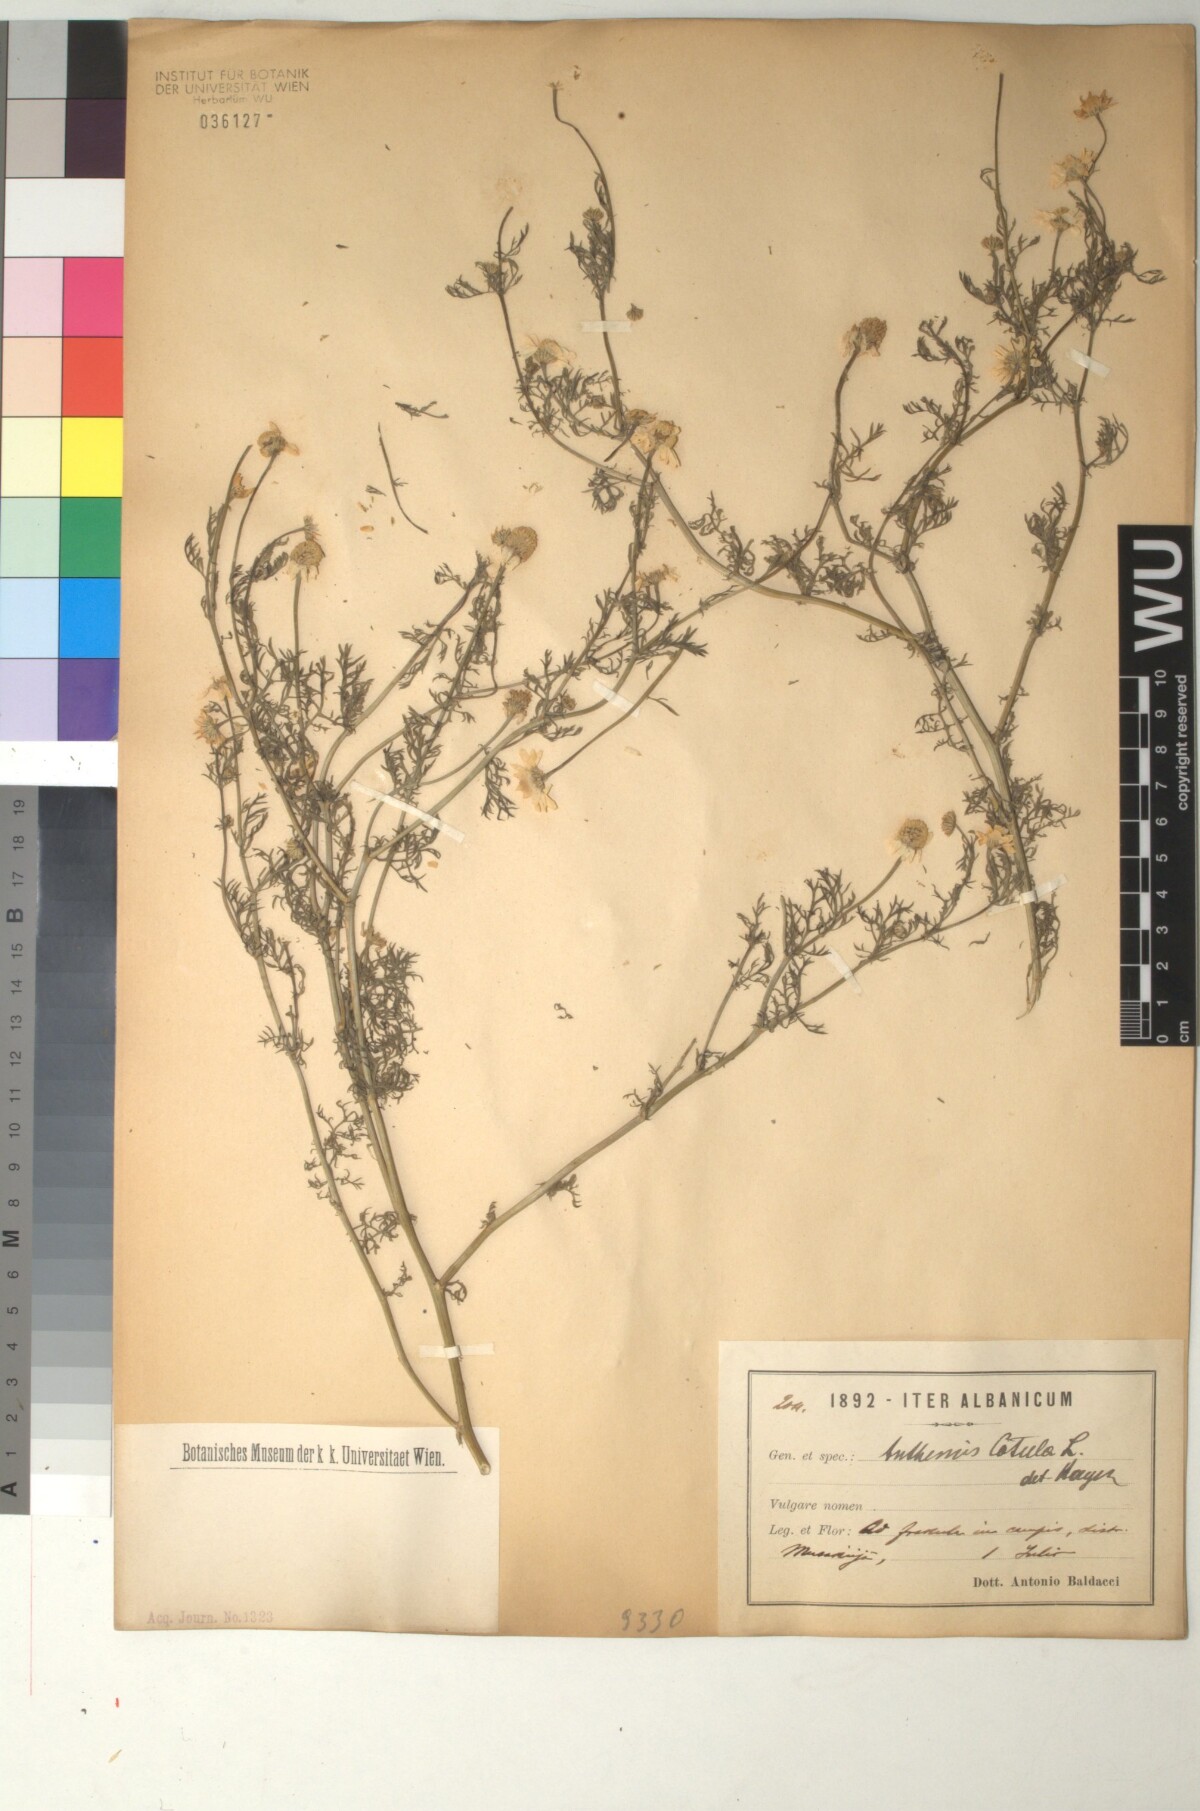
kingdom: Plantae
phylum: Tracheophyta
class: Magnoliopsida
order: Asterales
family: Asteraceae
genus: Anthemis
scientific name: Anthemis cotula
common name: Stinking chamomile
